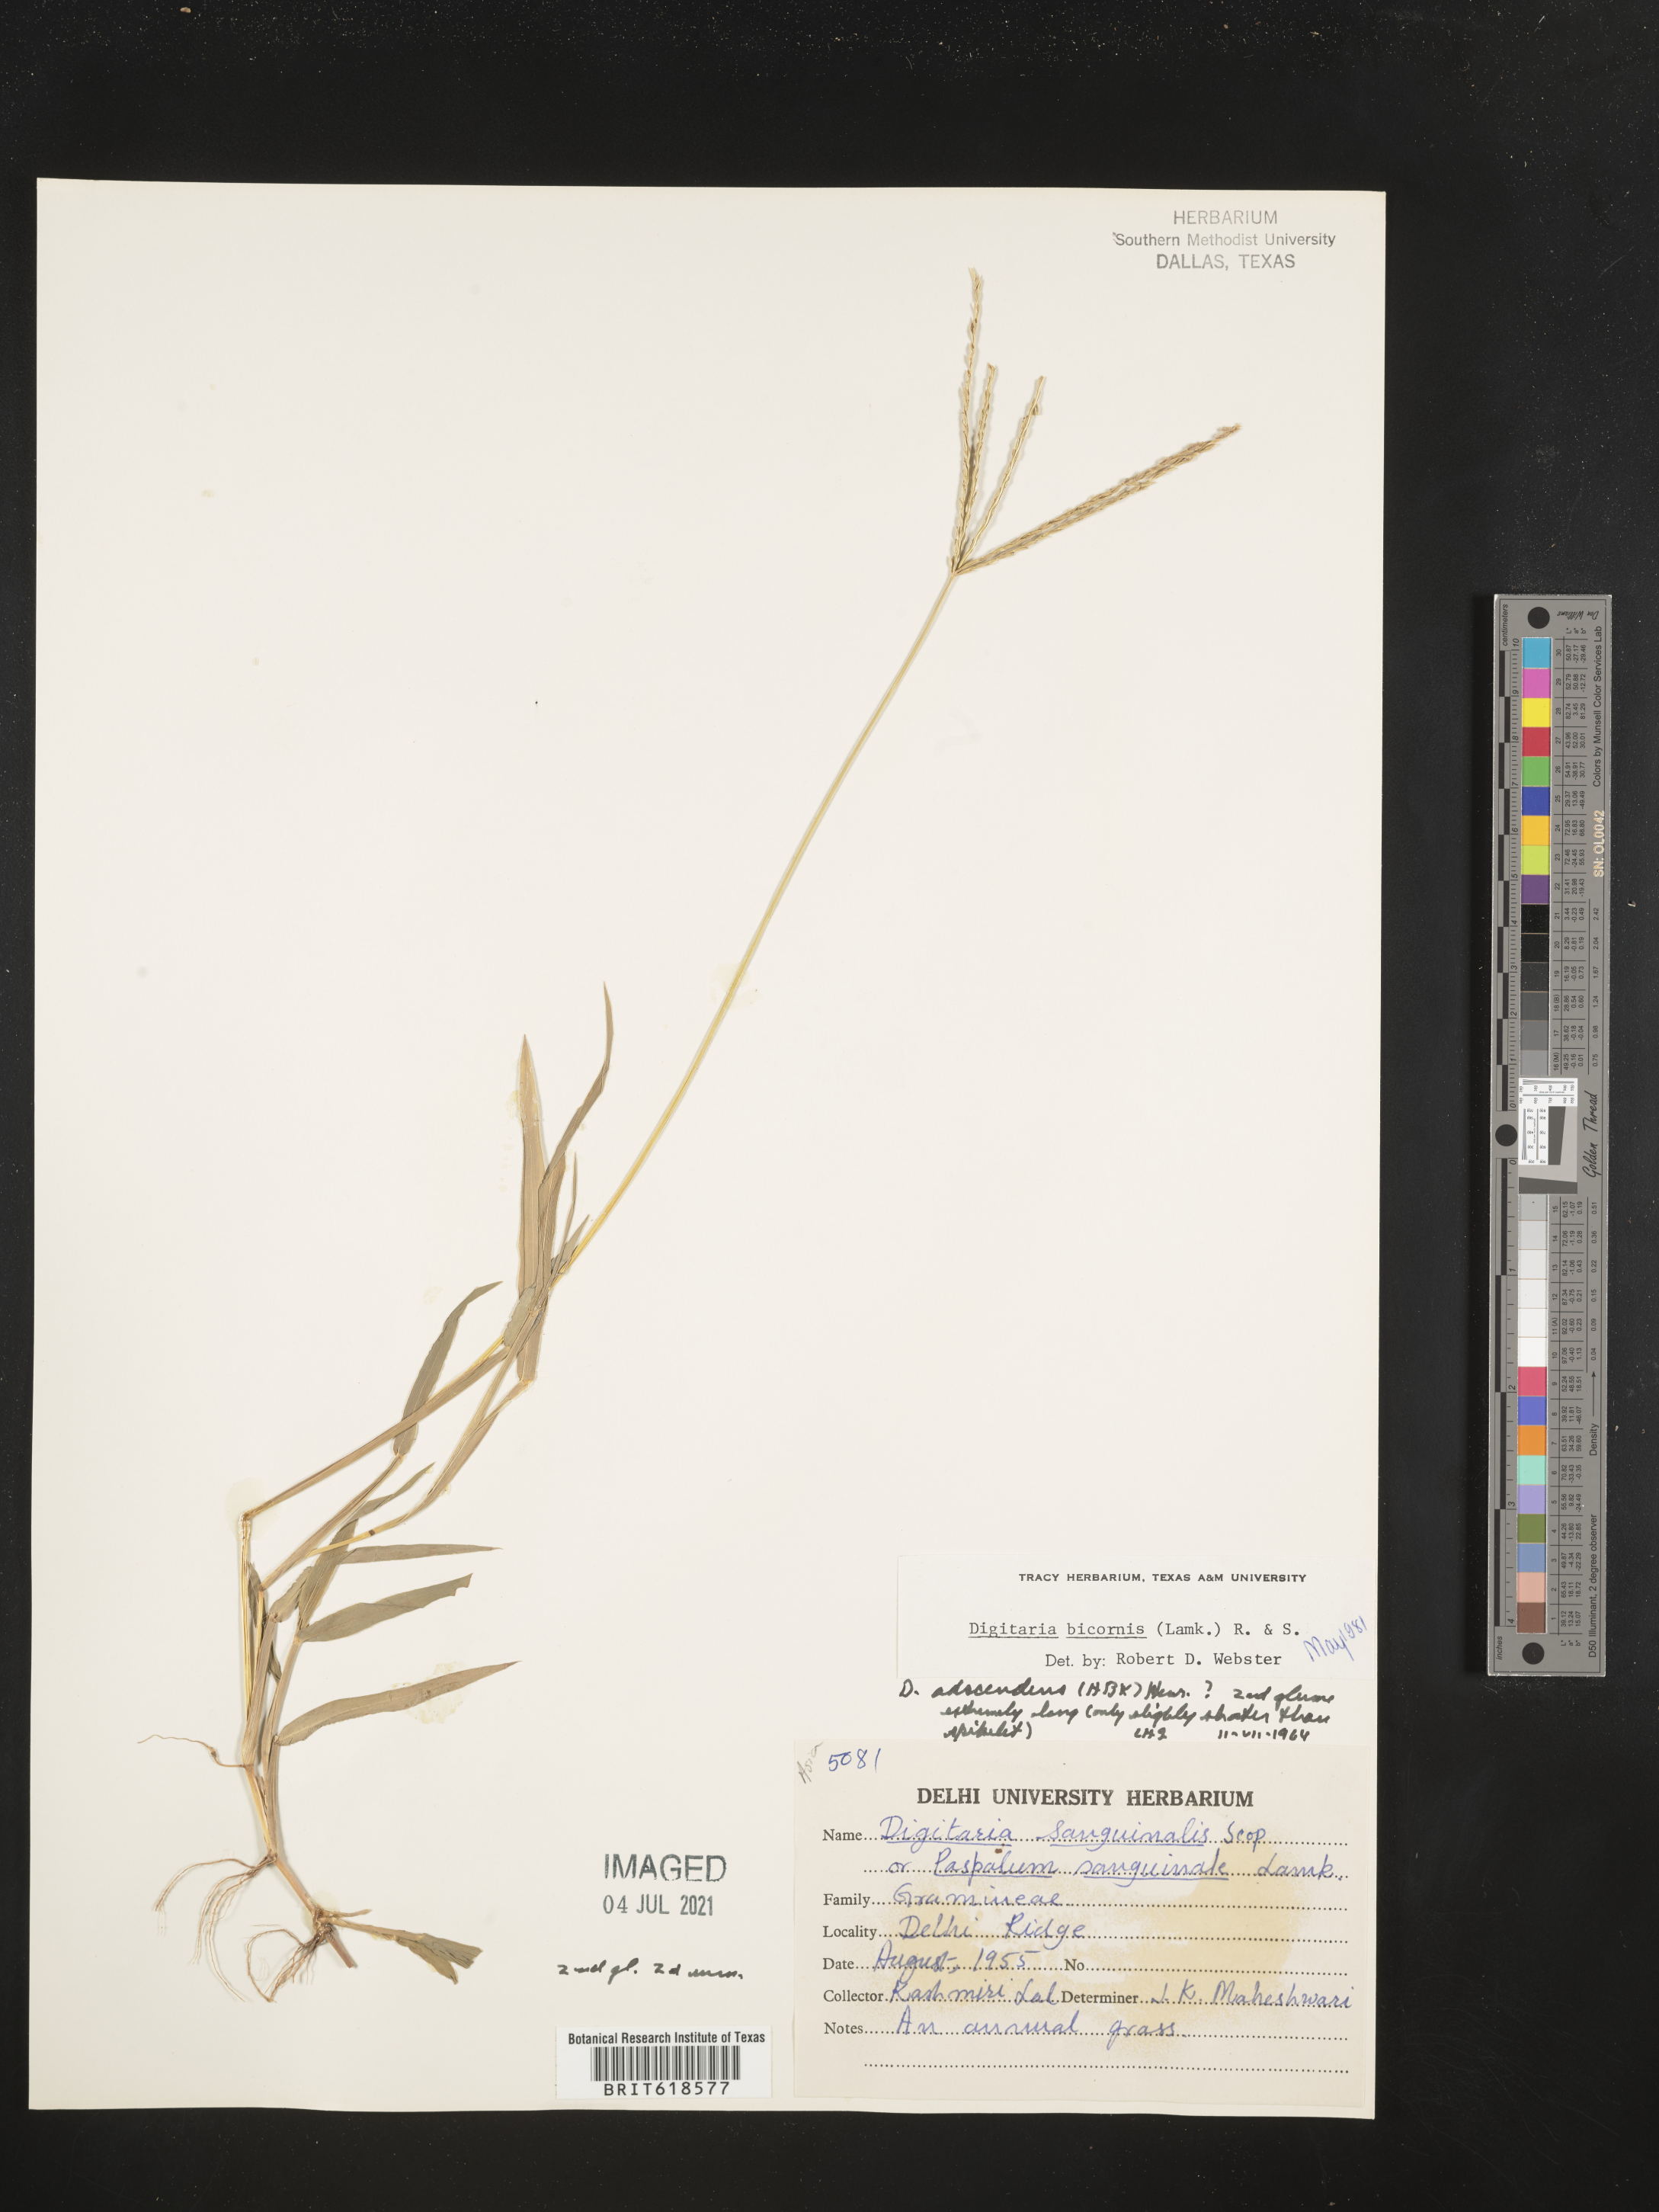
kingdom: Plantae
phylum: Tracheophyta
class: Liliopsida
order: Poales
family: Poaceae
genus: Digitaria
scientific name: Digitaria bicornis
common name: Asian crabgrass
